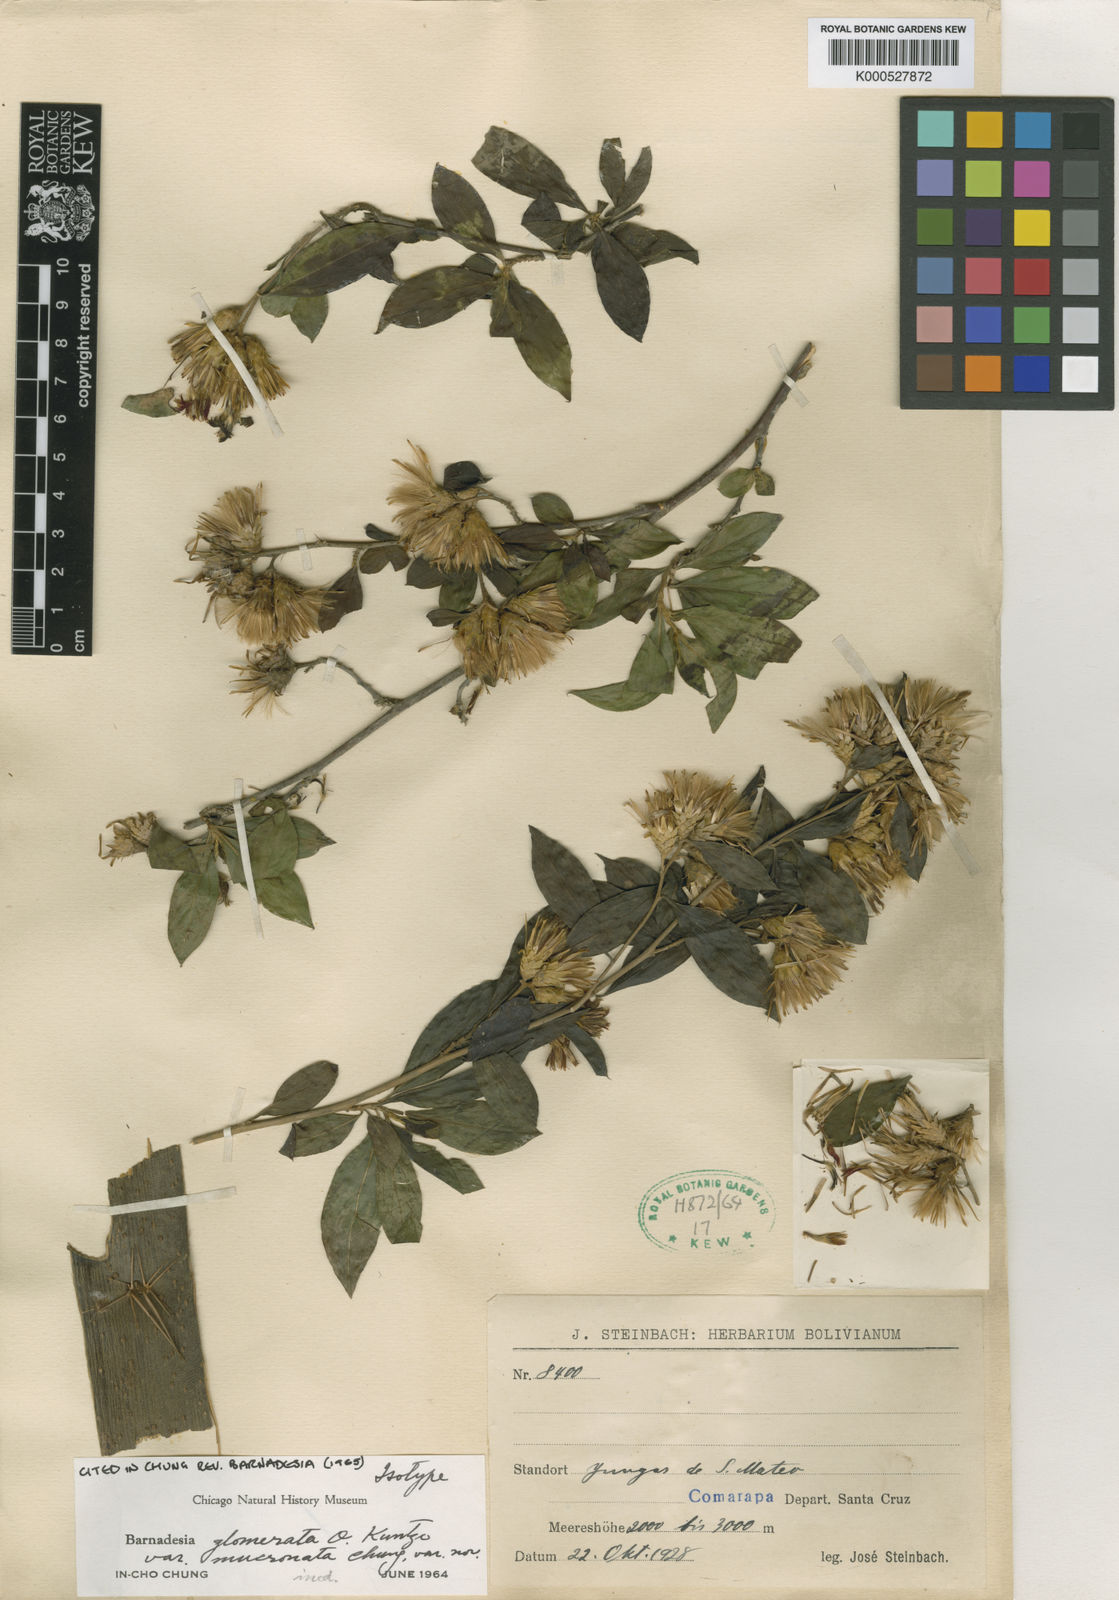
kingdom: Plantae
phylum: Tracheophyta
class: Magnoliopsida
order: Asterales
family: Asteraceae
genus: Barnadesia
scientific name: Barnadesia glomerata
